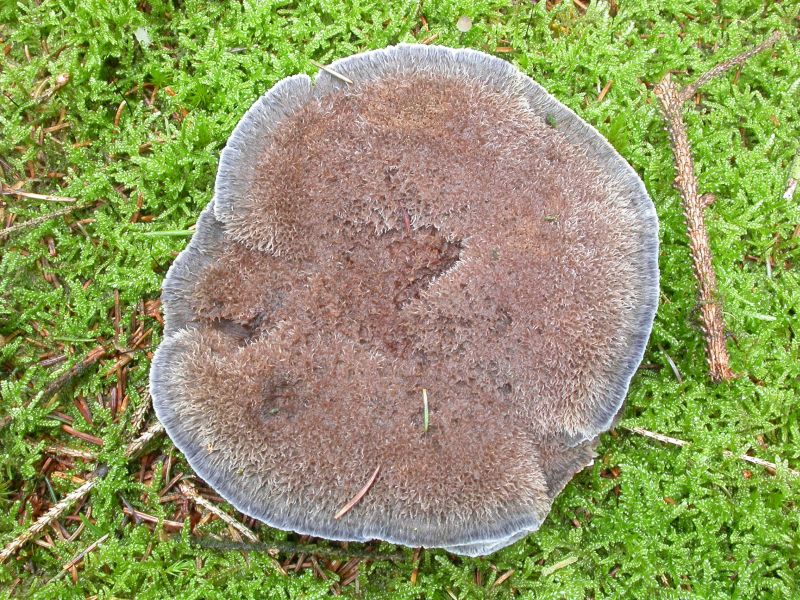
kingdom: Fungi
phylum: Basidiomycota
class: Agaricomycetes
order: Thelephorales
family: Bankeraceae
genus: Hydnellum
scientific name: Hydnellum caeruleum
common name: blålig korkpigsvamp
